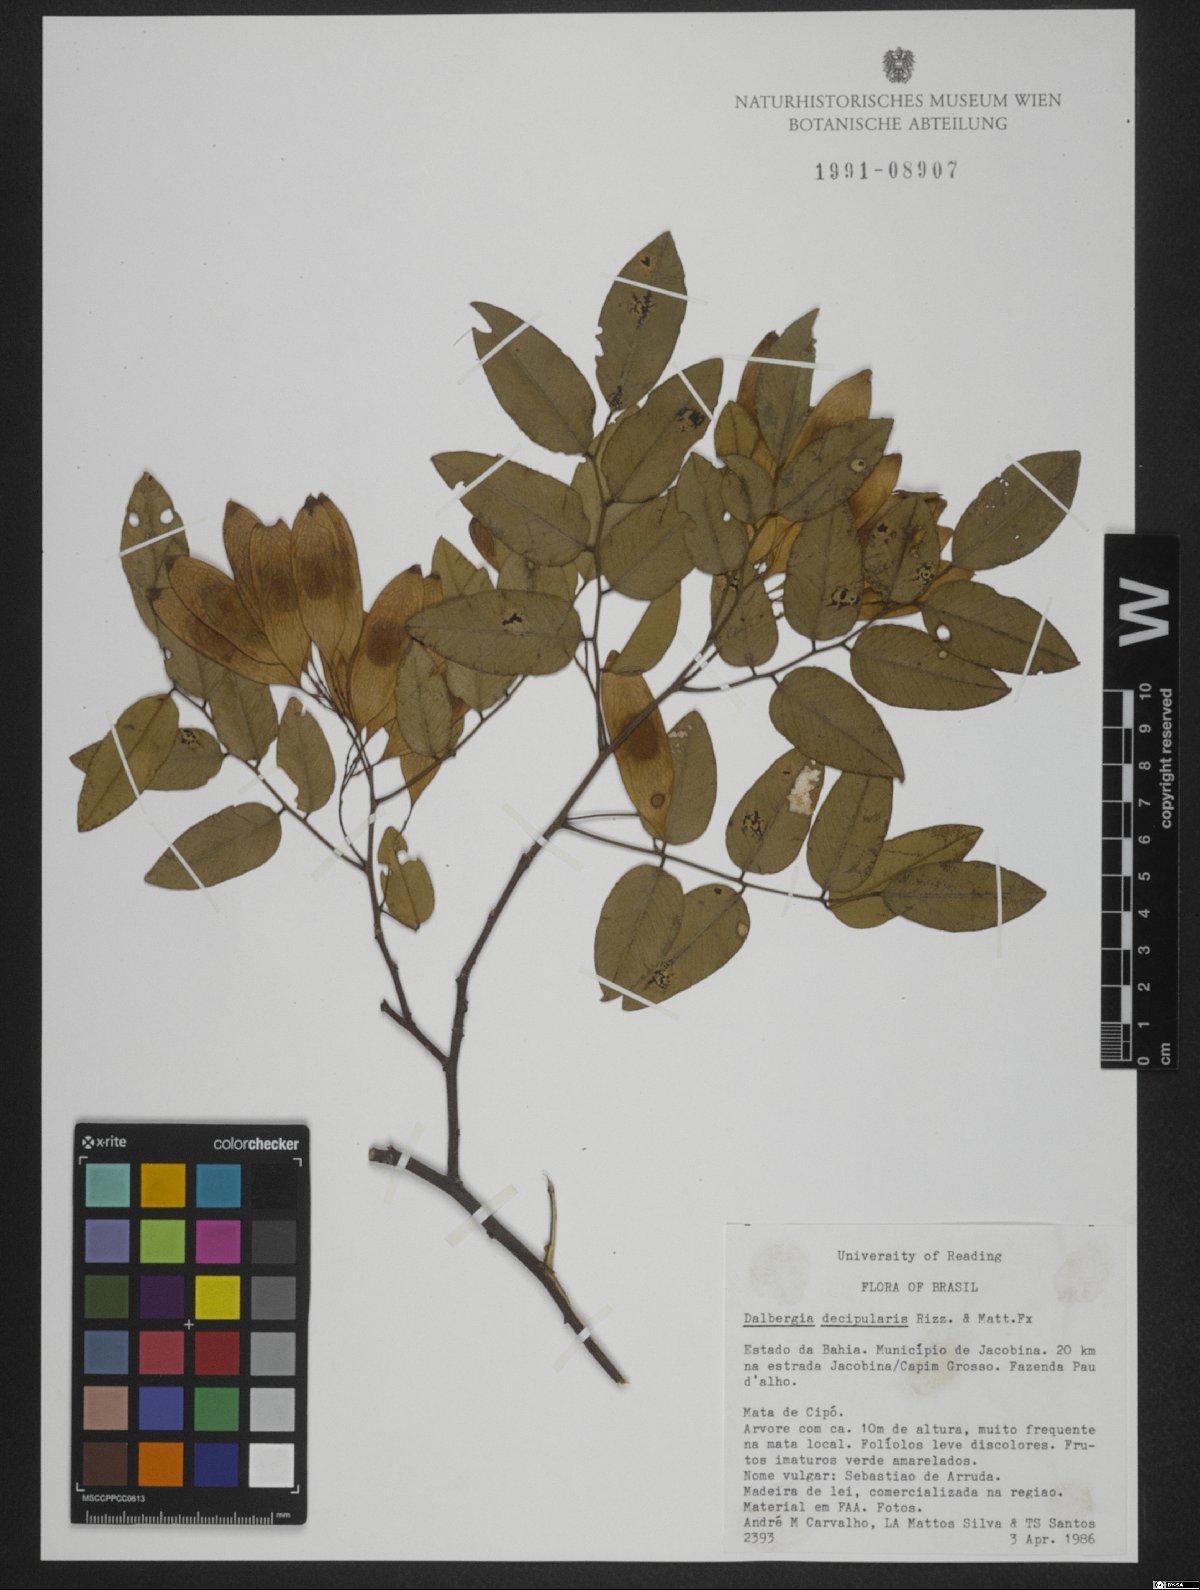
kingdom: Plantae
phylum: Tracheophyta
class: Magnoliopsida
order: Fabales
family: Fabaceae
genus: Dalbergia
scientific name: Dalbergia decipularis
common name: Brazilian tulipwood
